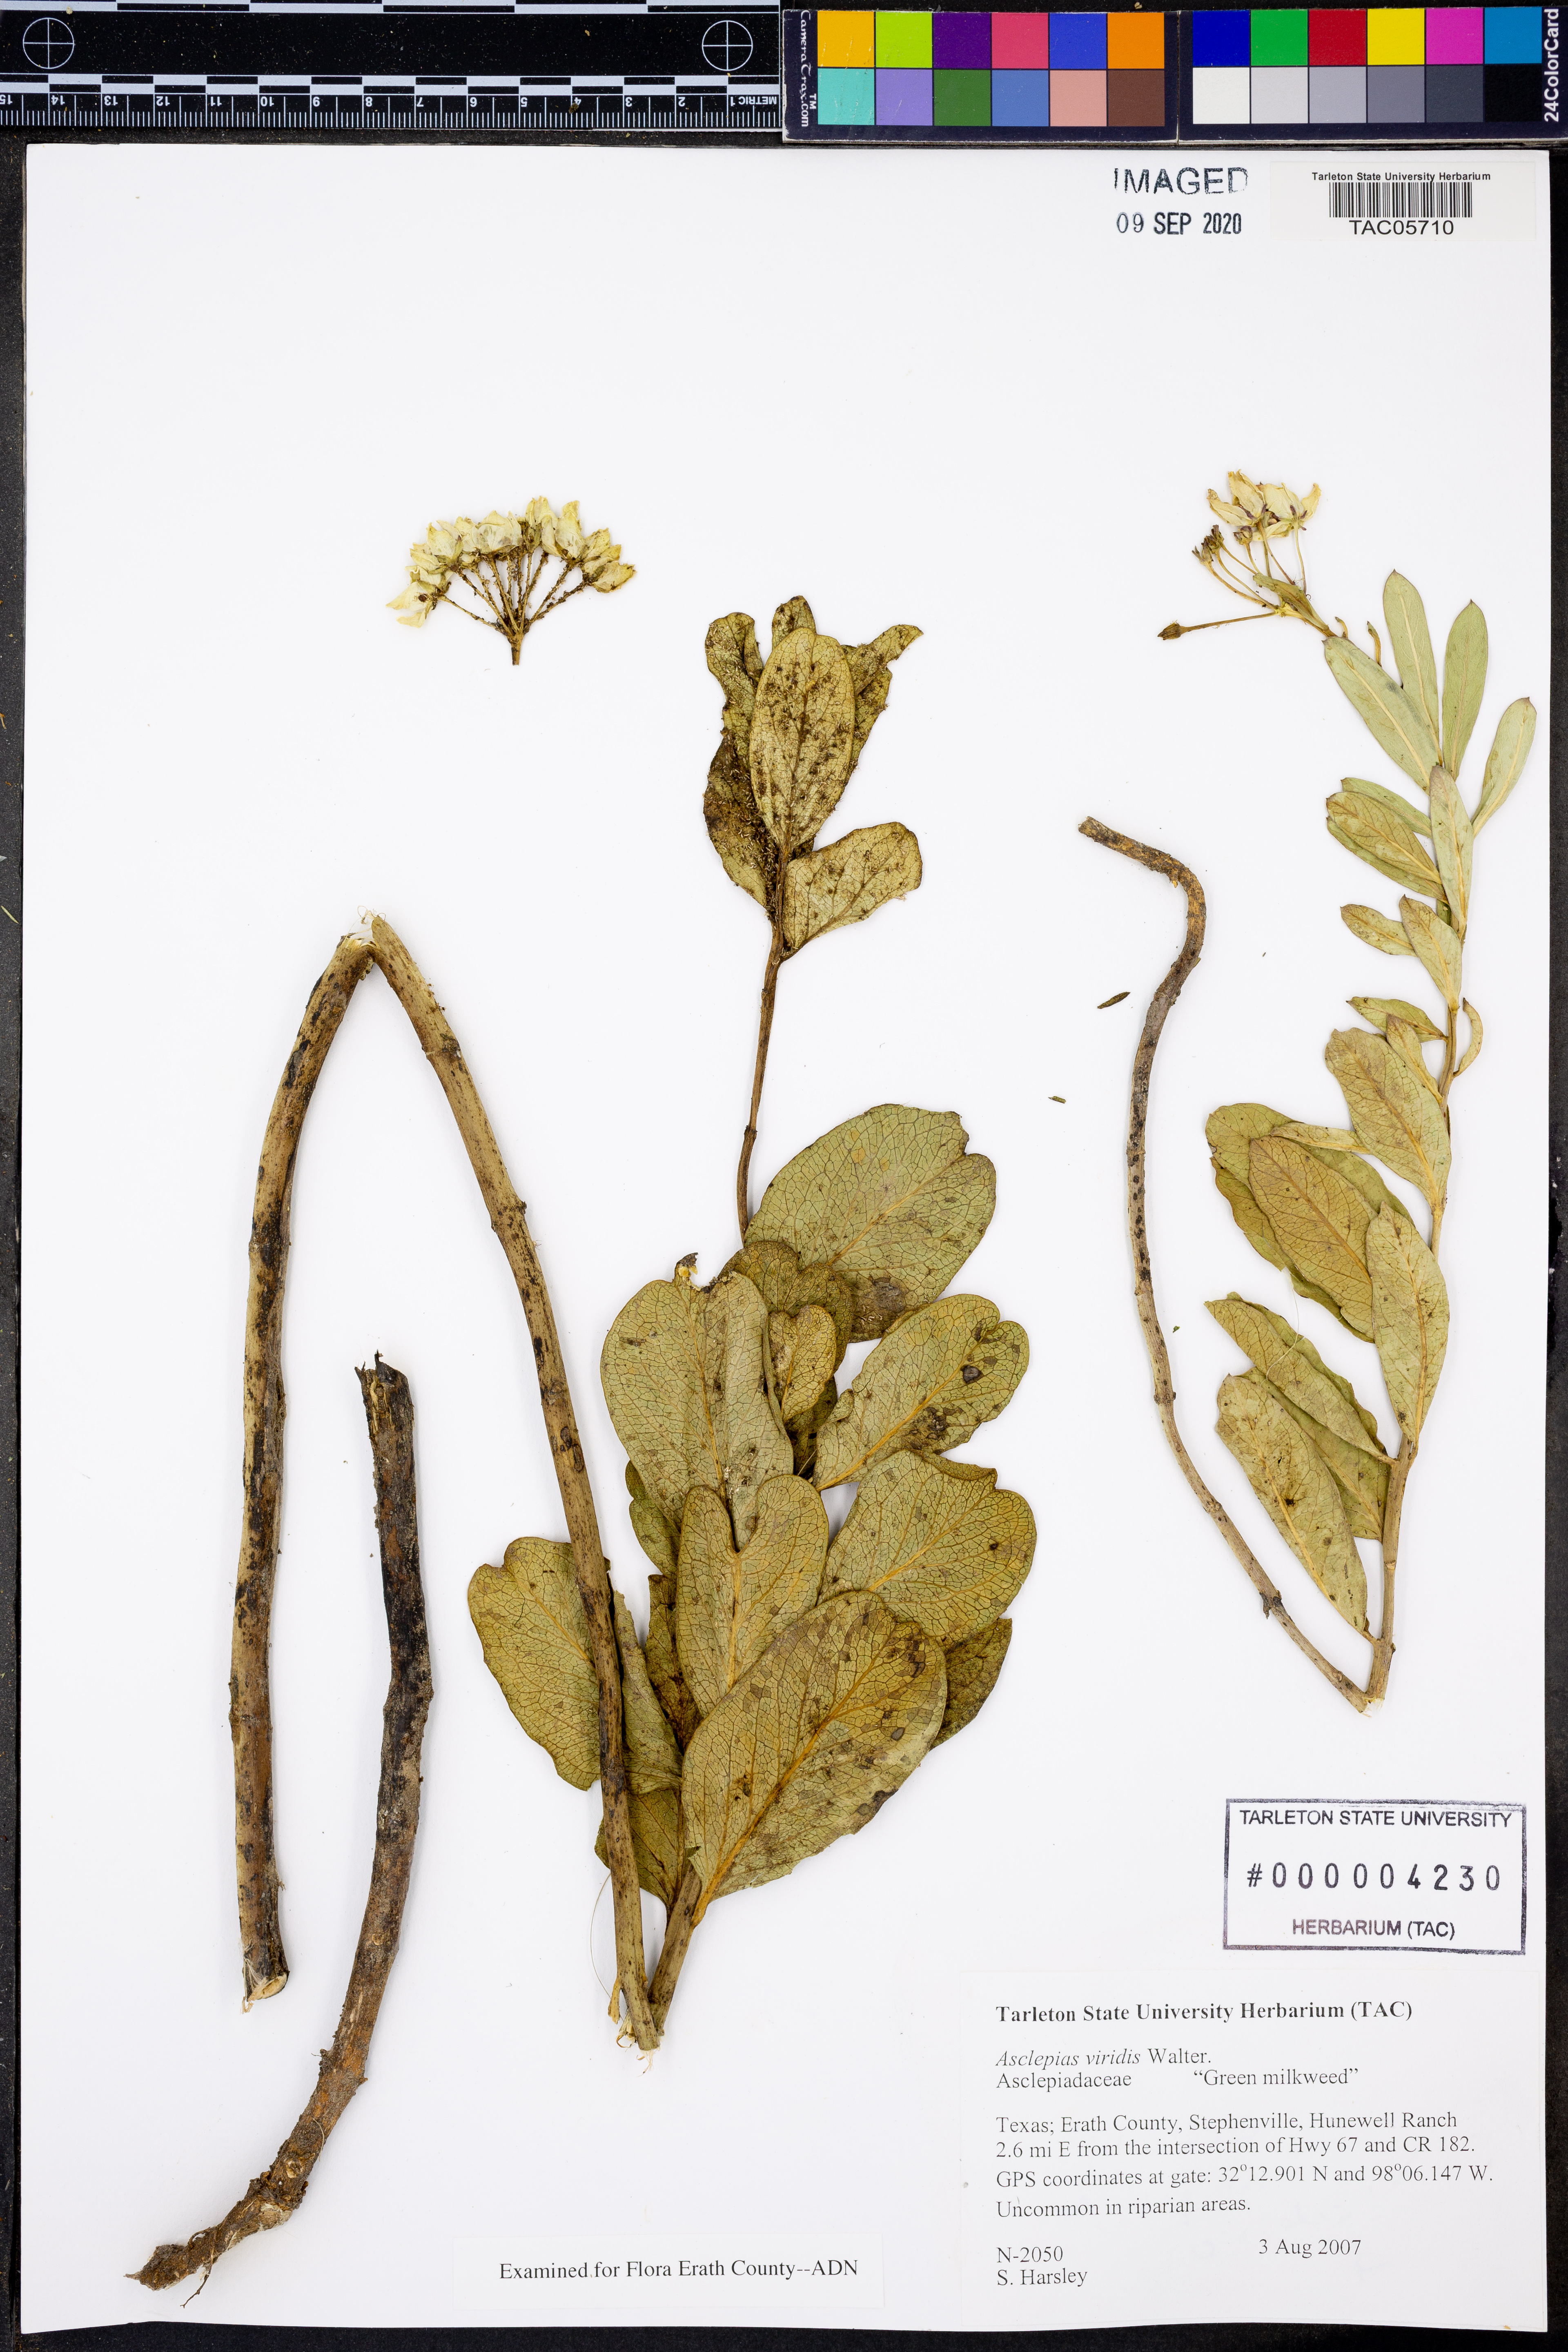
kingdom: Plantae
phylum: Tracheophyta
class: Magnoliopsida
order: Gentianales
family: Apocynaceae
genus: Asclepias
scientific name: Asclepias viridis
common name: Antelope-horns
